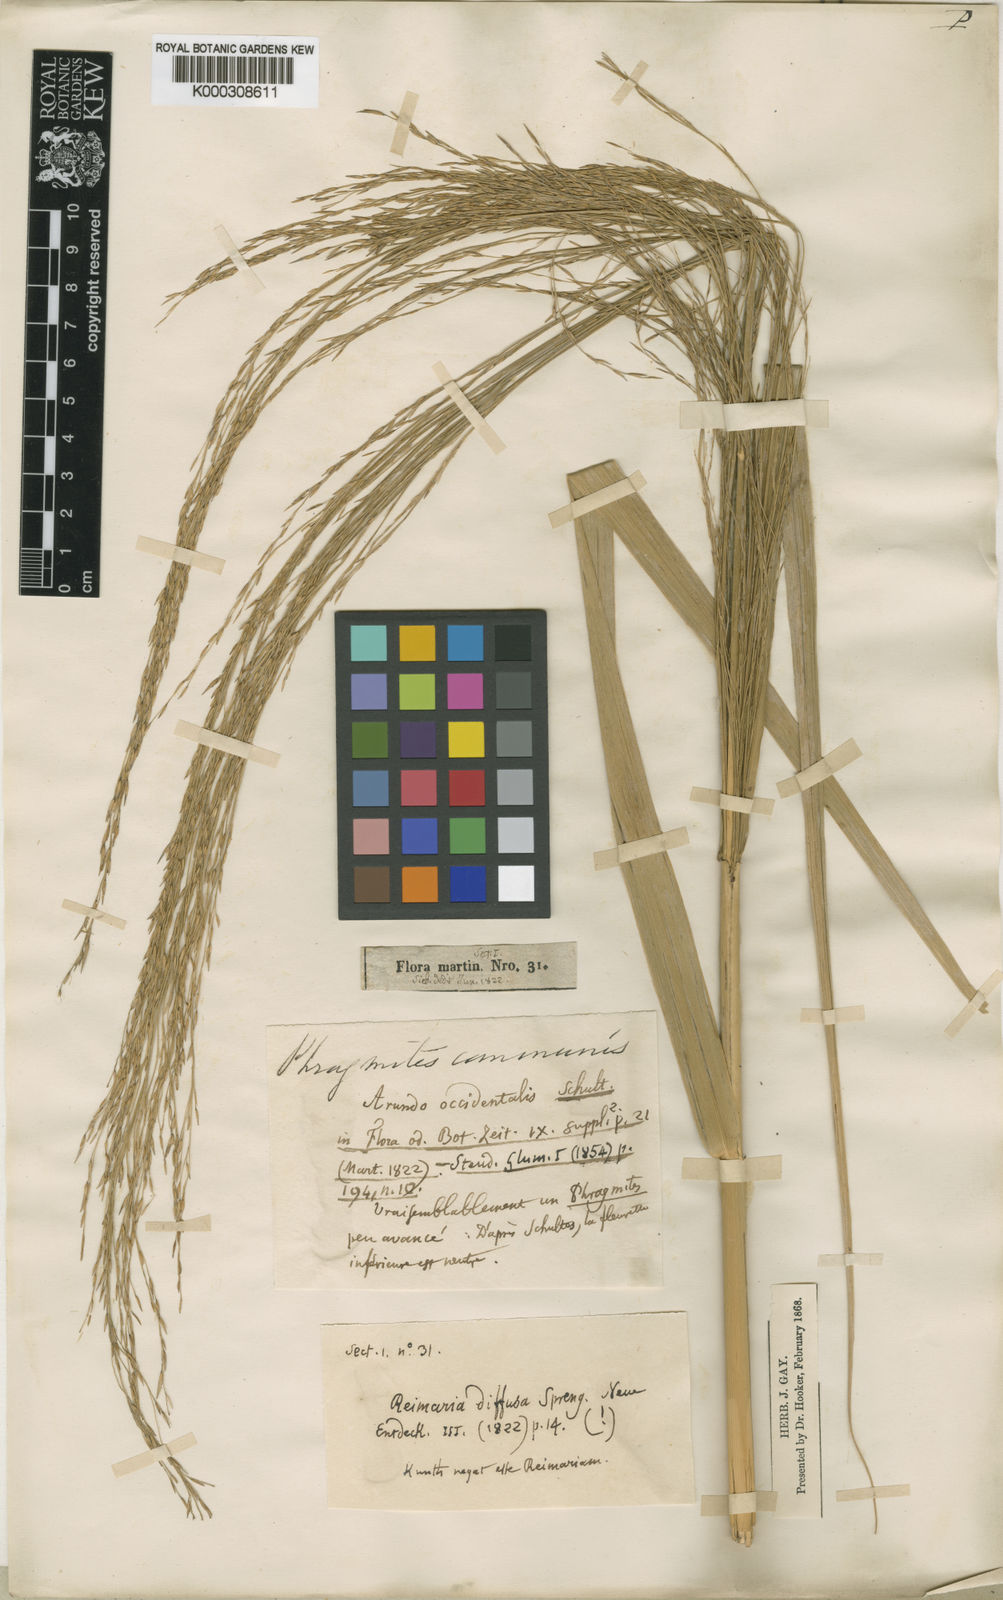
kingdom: Plantae
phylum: Tracheophyta
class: Liliopsida
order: Poales
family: Poaceae
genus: Phragmites
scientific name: Phragmites australis
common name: Common reed
